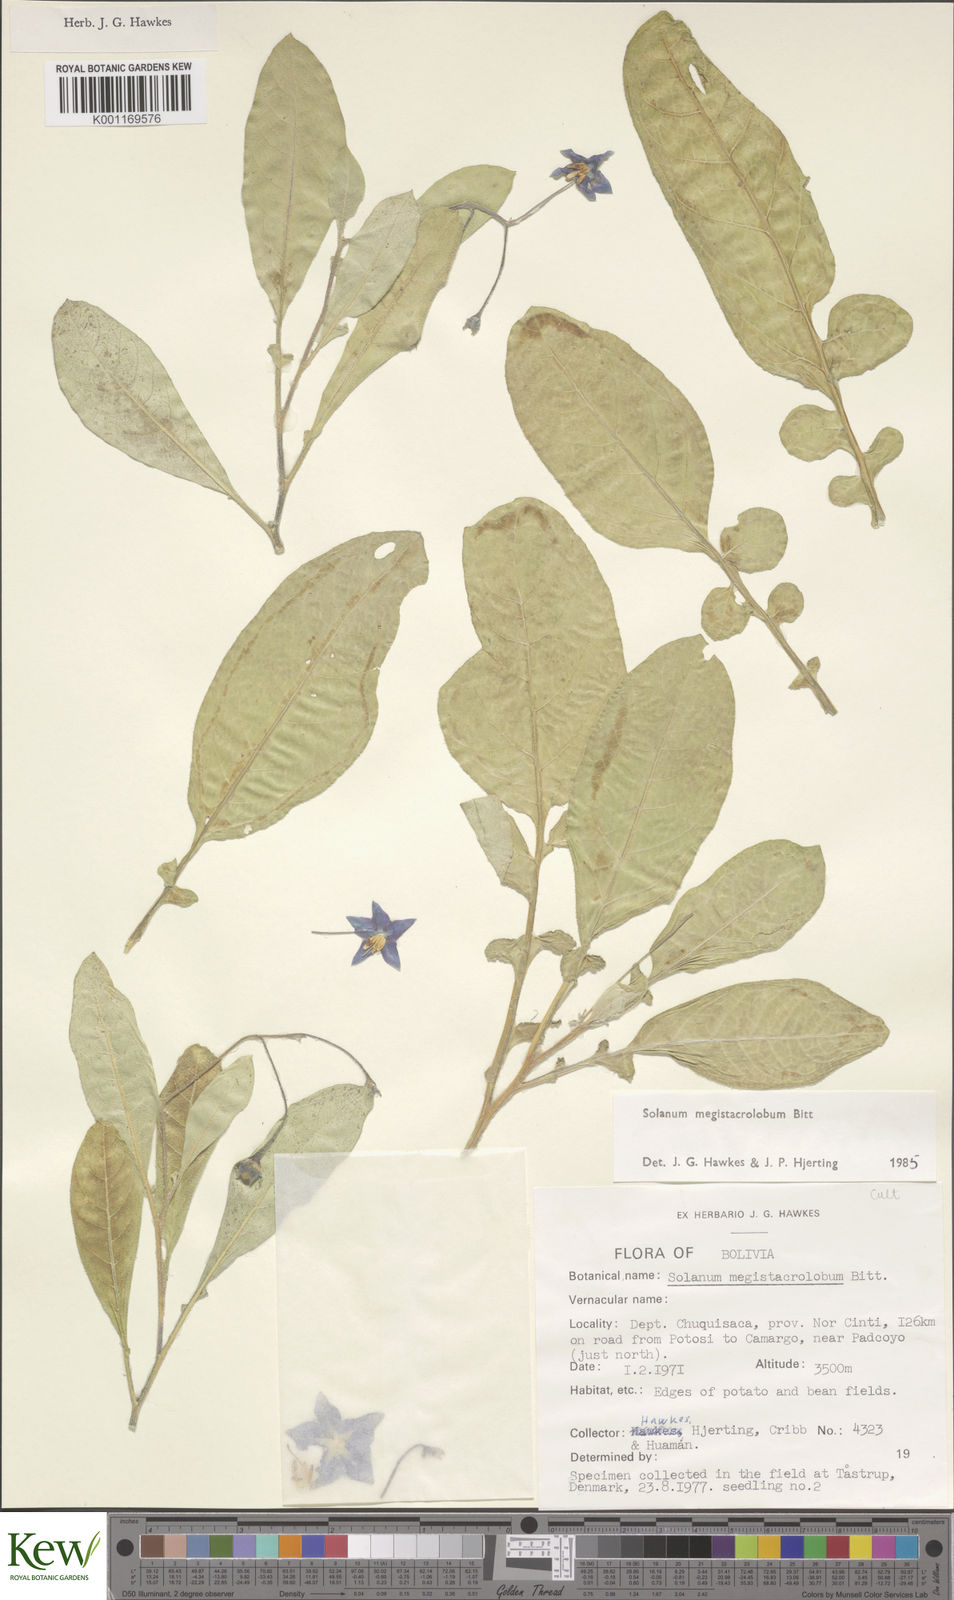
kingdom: Plantae
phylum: Tracheophyta
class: Magnoliopsida
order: Solanales
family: Solanaceae
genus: Solanum
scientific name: Solanum boliviense
